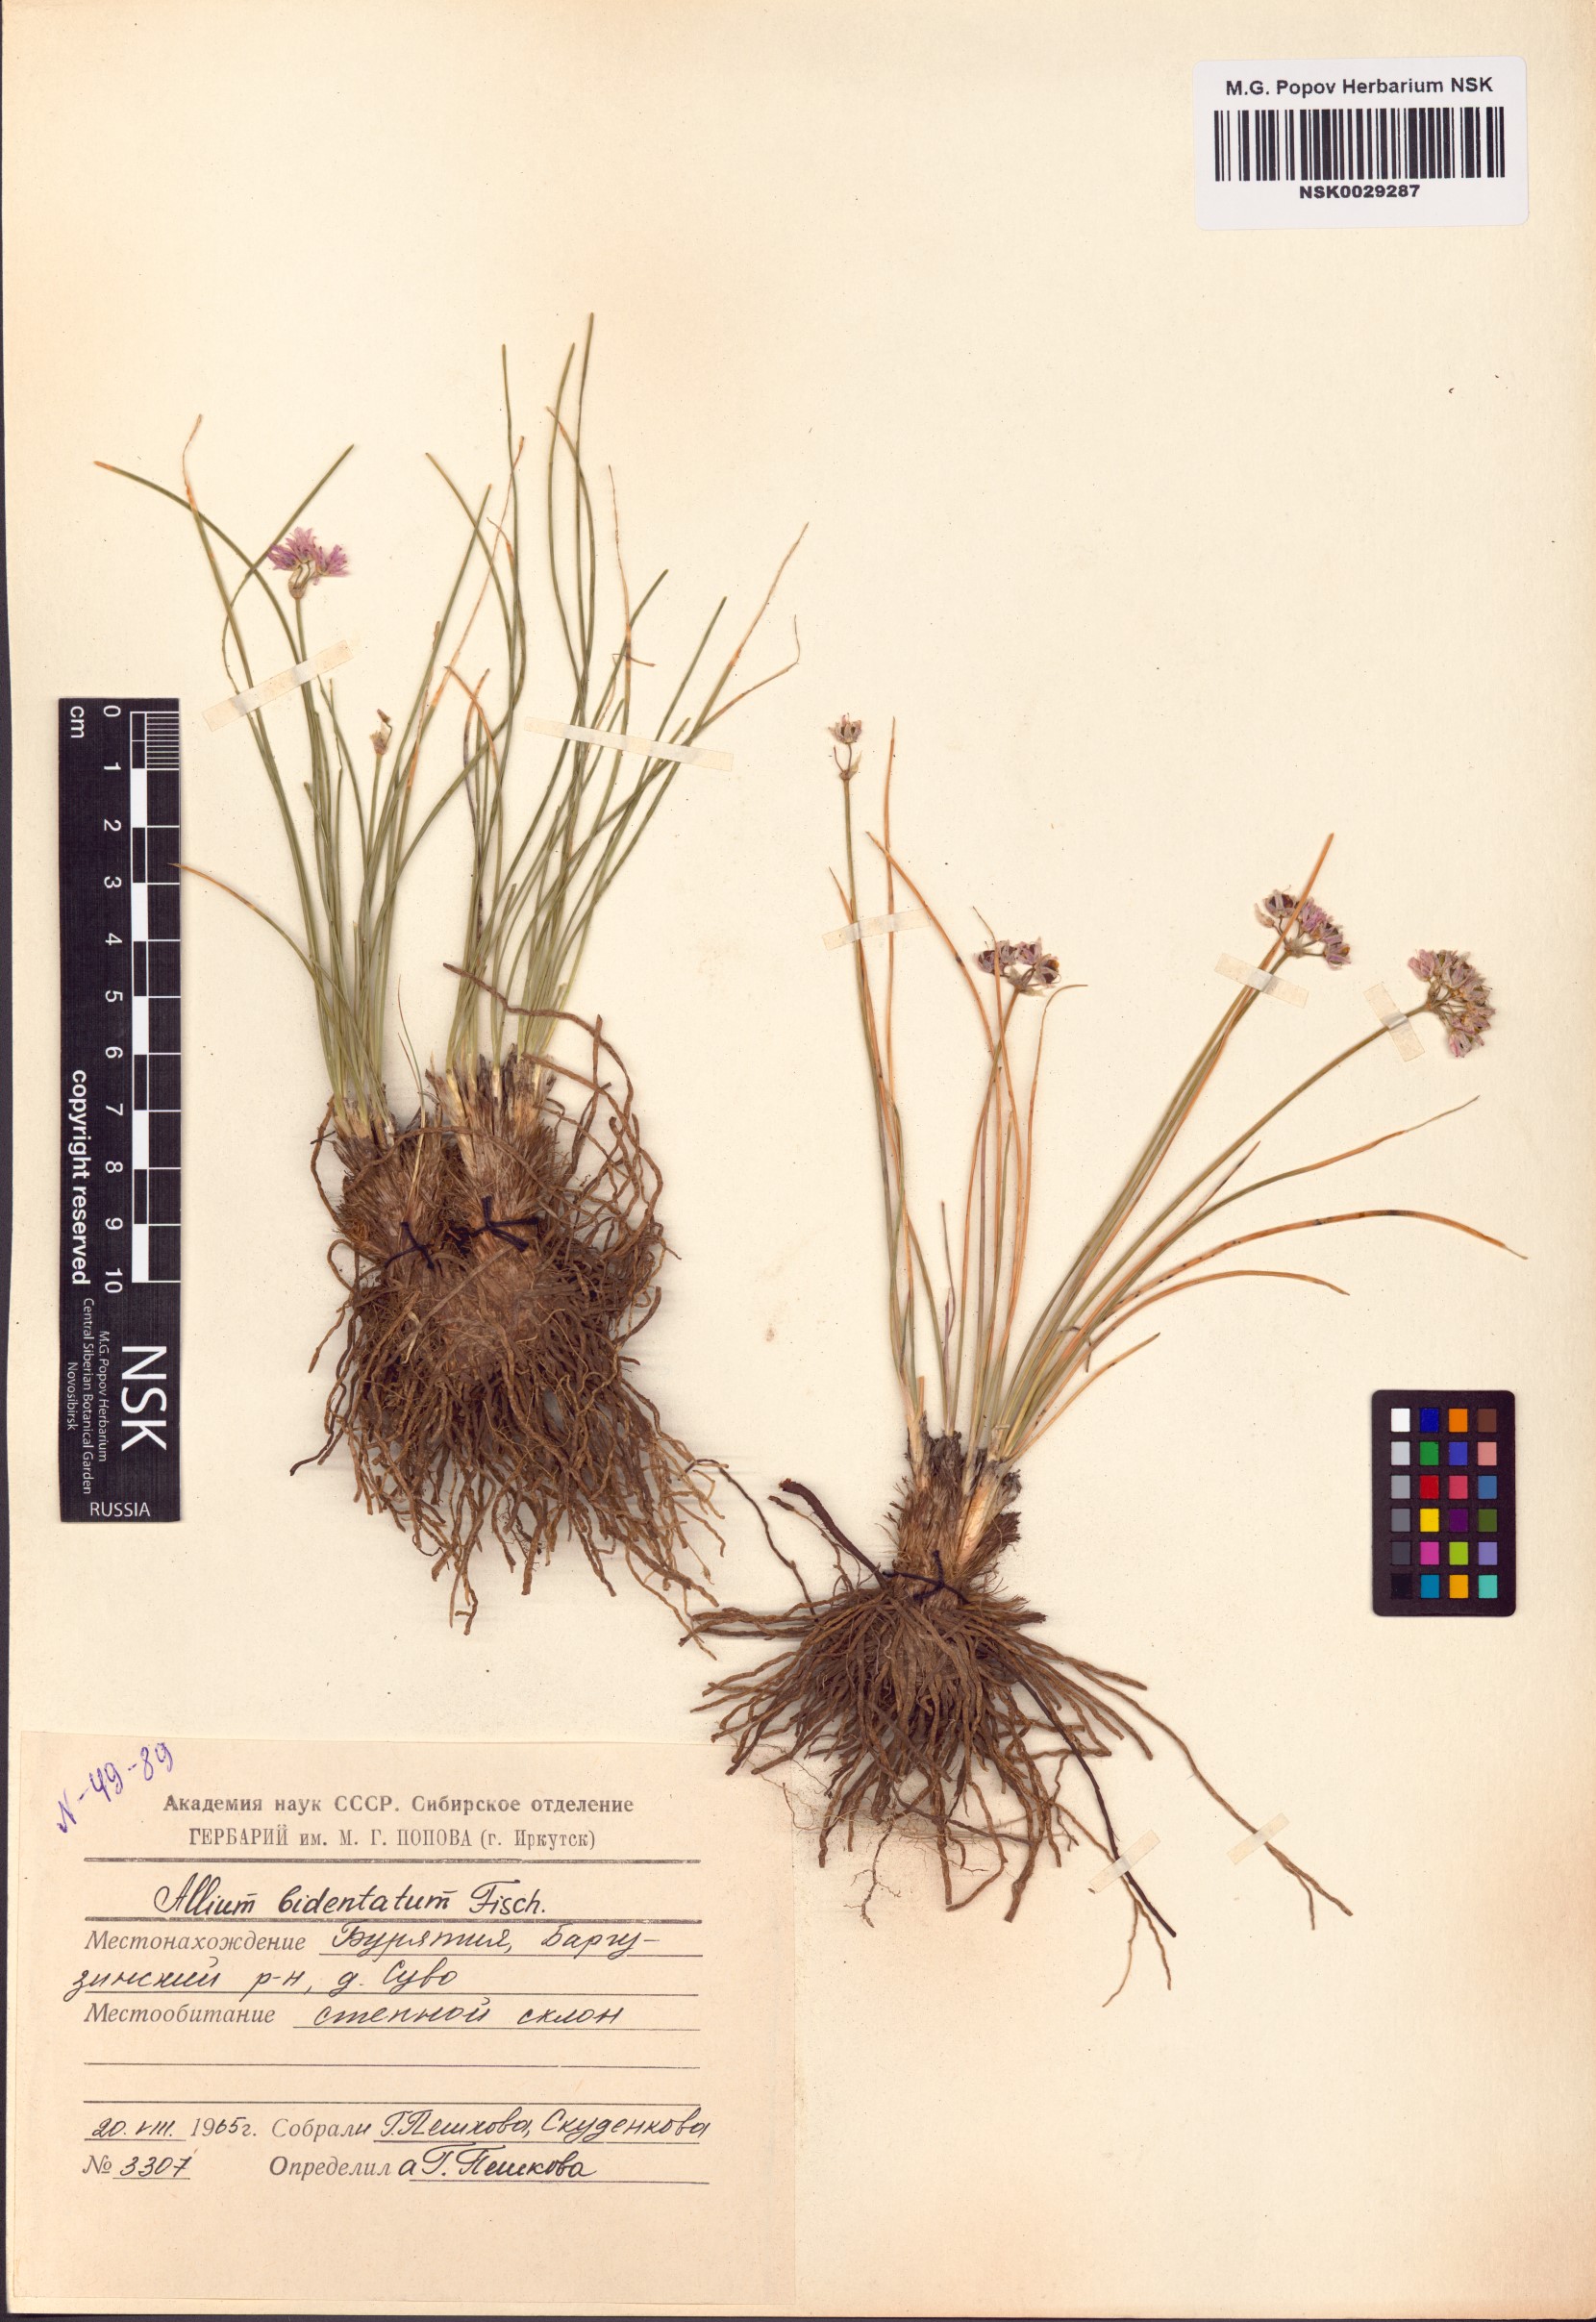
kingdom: Plantae
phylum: Tracheophyta
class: Liliopsida
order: Asparagales
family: Amaryllidaceae
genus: Allium
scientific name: Allium bidentatum
